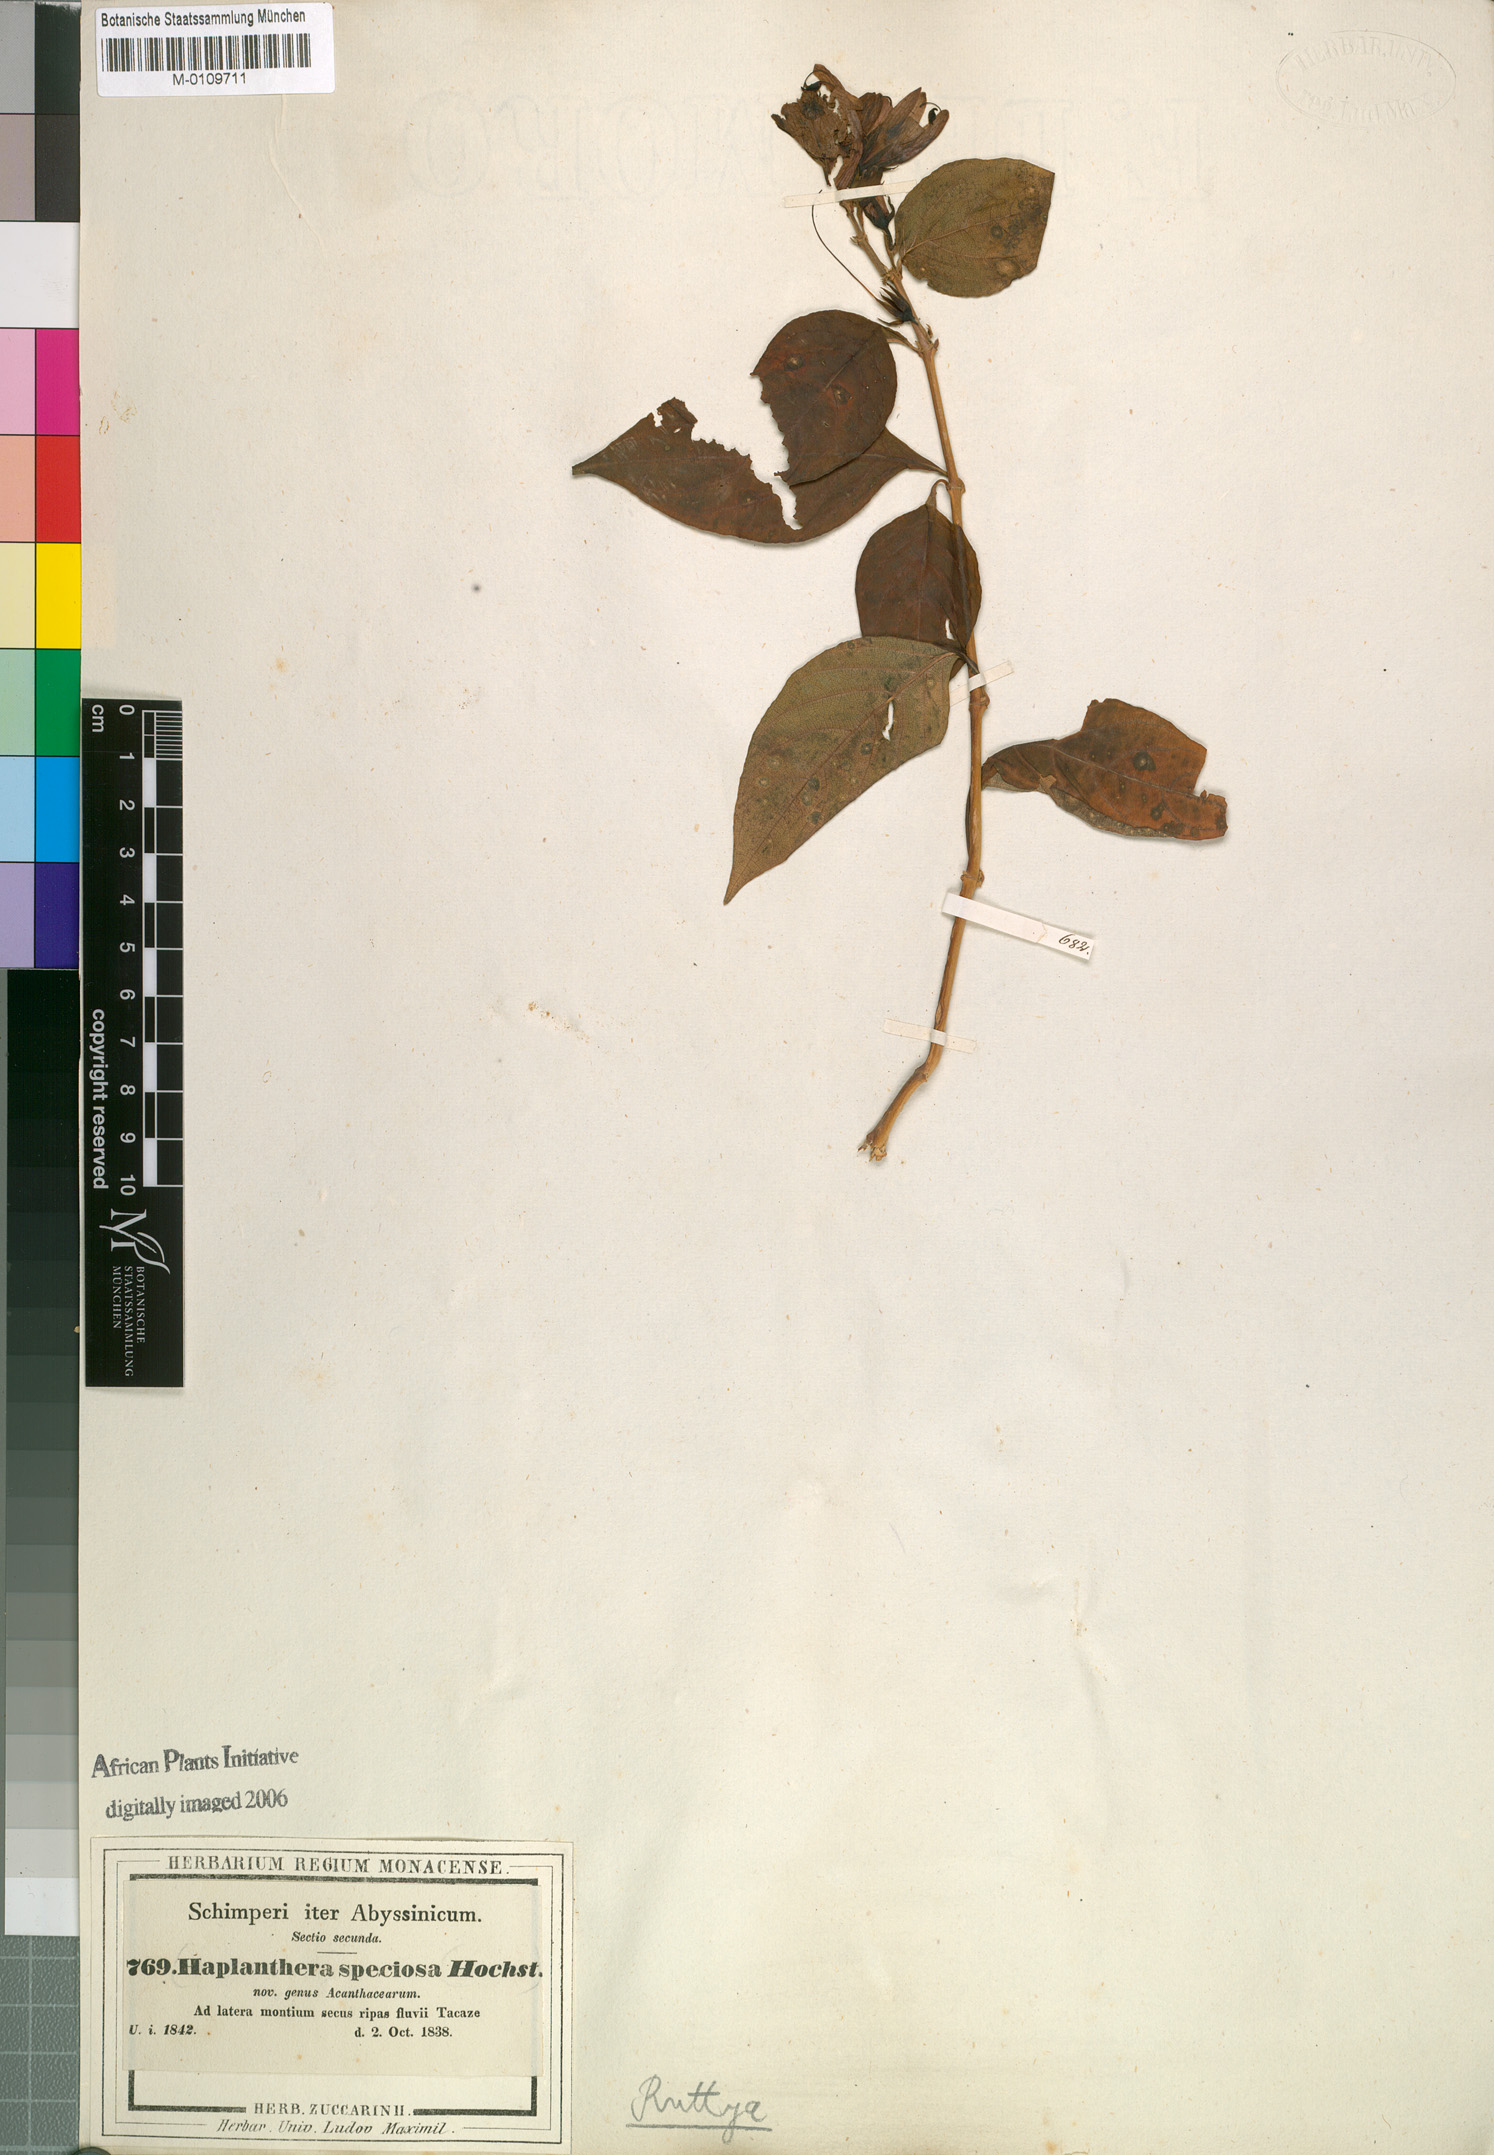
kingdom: Plantae
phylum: Tracheophyta
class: Magnoliopsida
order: Lamiales
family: Acanthaceae
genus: Ruttya
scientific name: Ruttya speciosa
